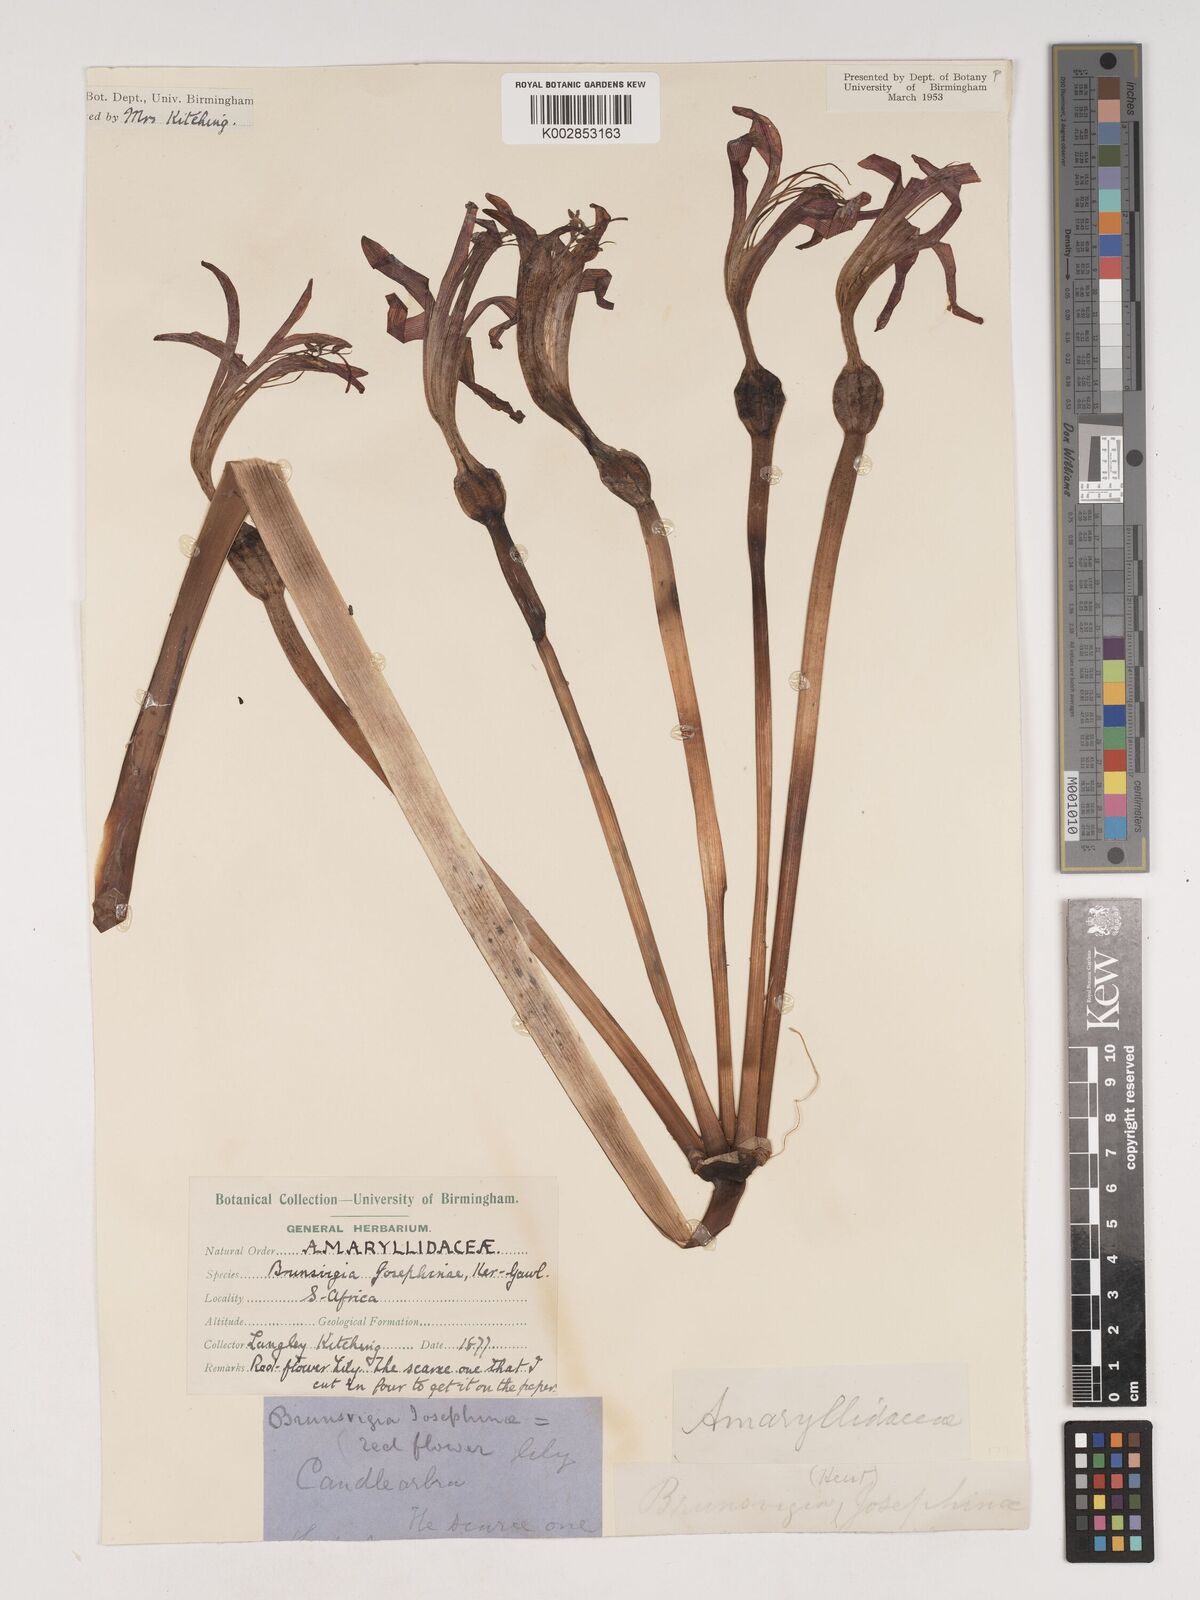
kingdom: Plantae
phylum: Tracheophyta
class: Liliopsida
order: Asparagales
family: Amaryllidaceae
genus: Brunsvigia
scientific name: Brunsvigia josephinae
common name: Josephine's-lily
